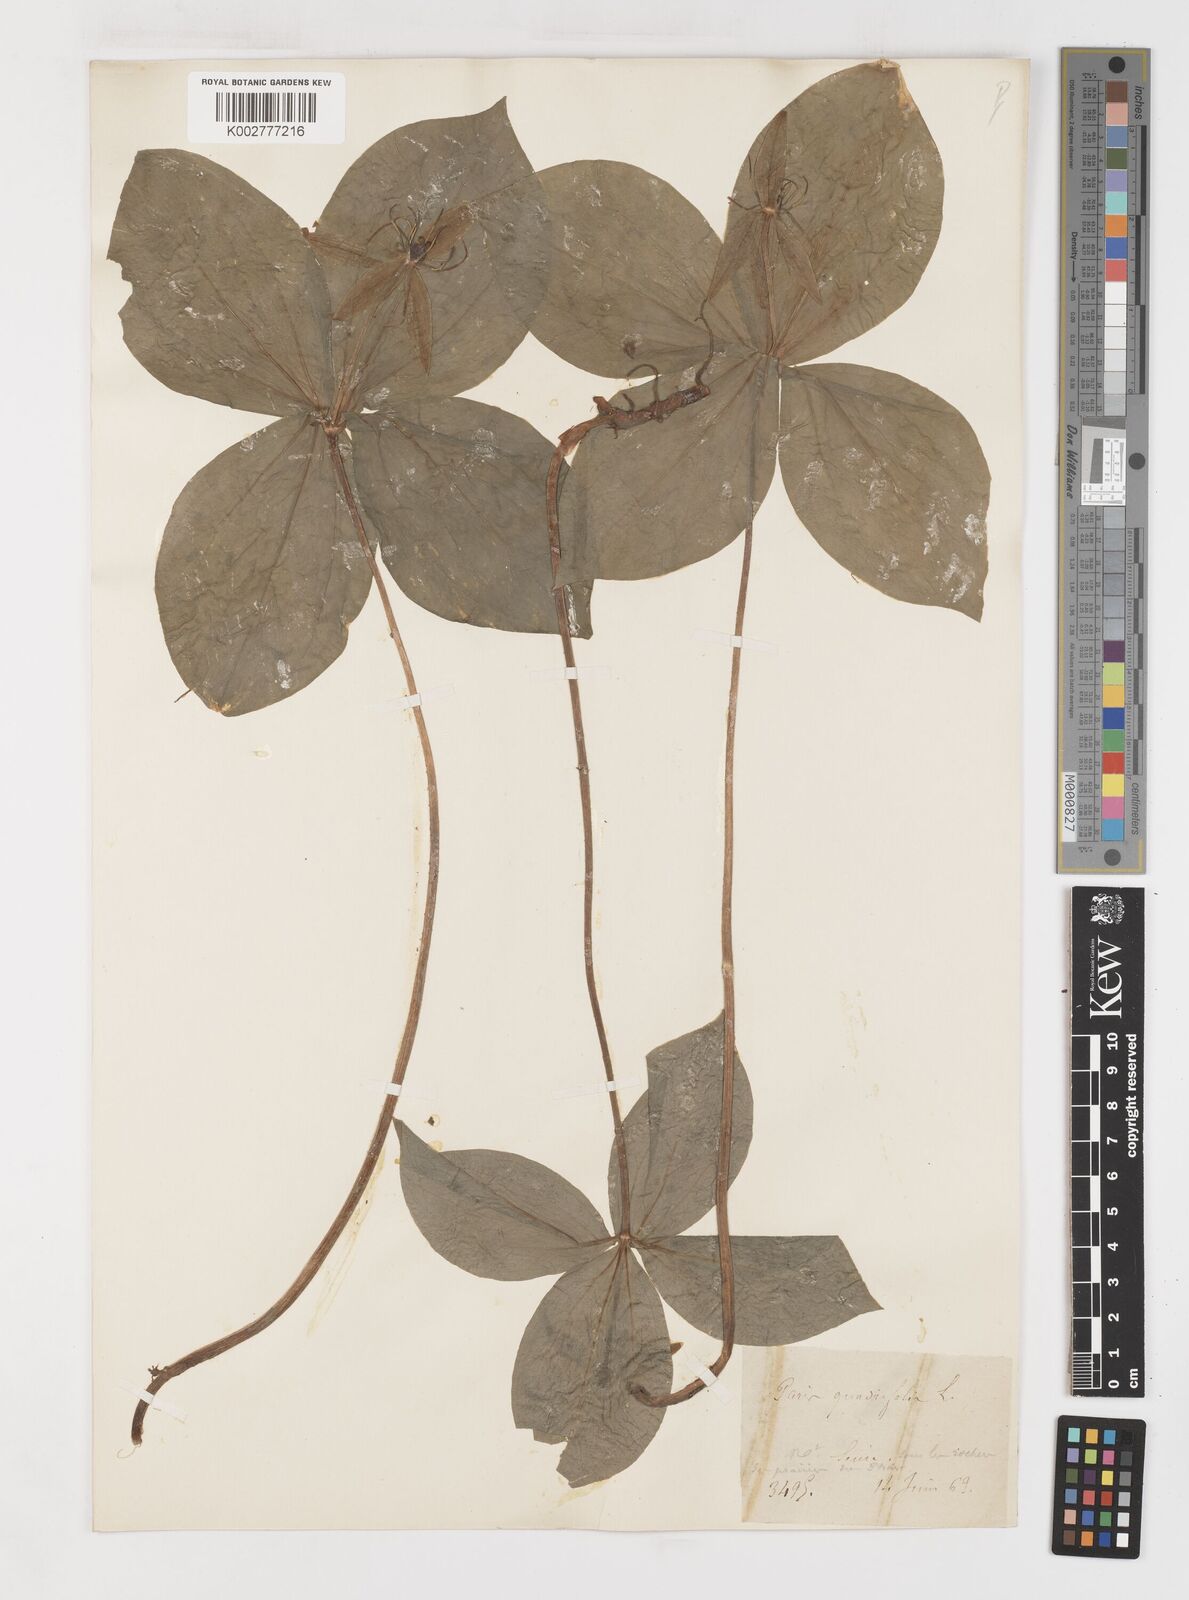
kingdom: Plantae
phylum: Tracheophyta
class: Liliopsida
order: Liliales
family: Melanthiaceae
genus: Paris
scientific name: Paris quadrifolia
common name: Herb-paris
